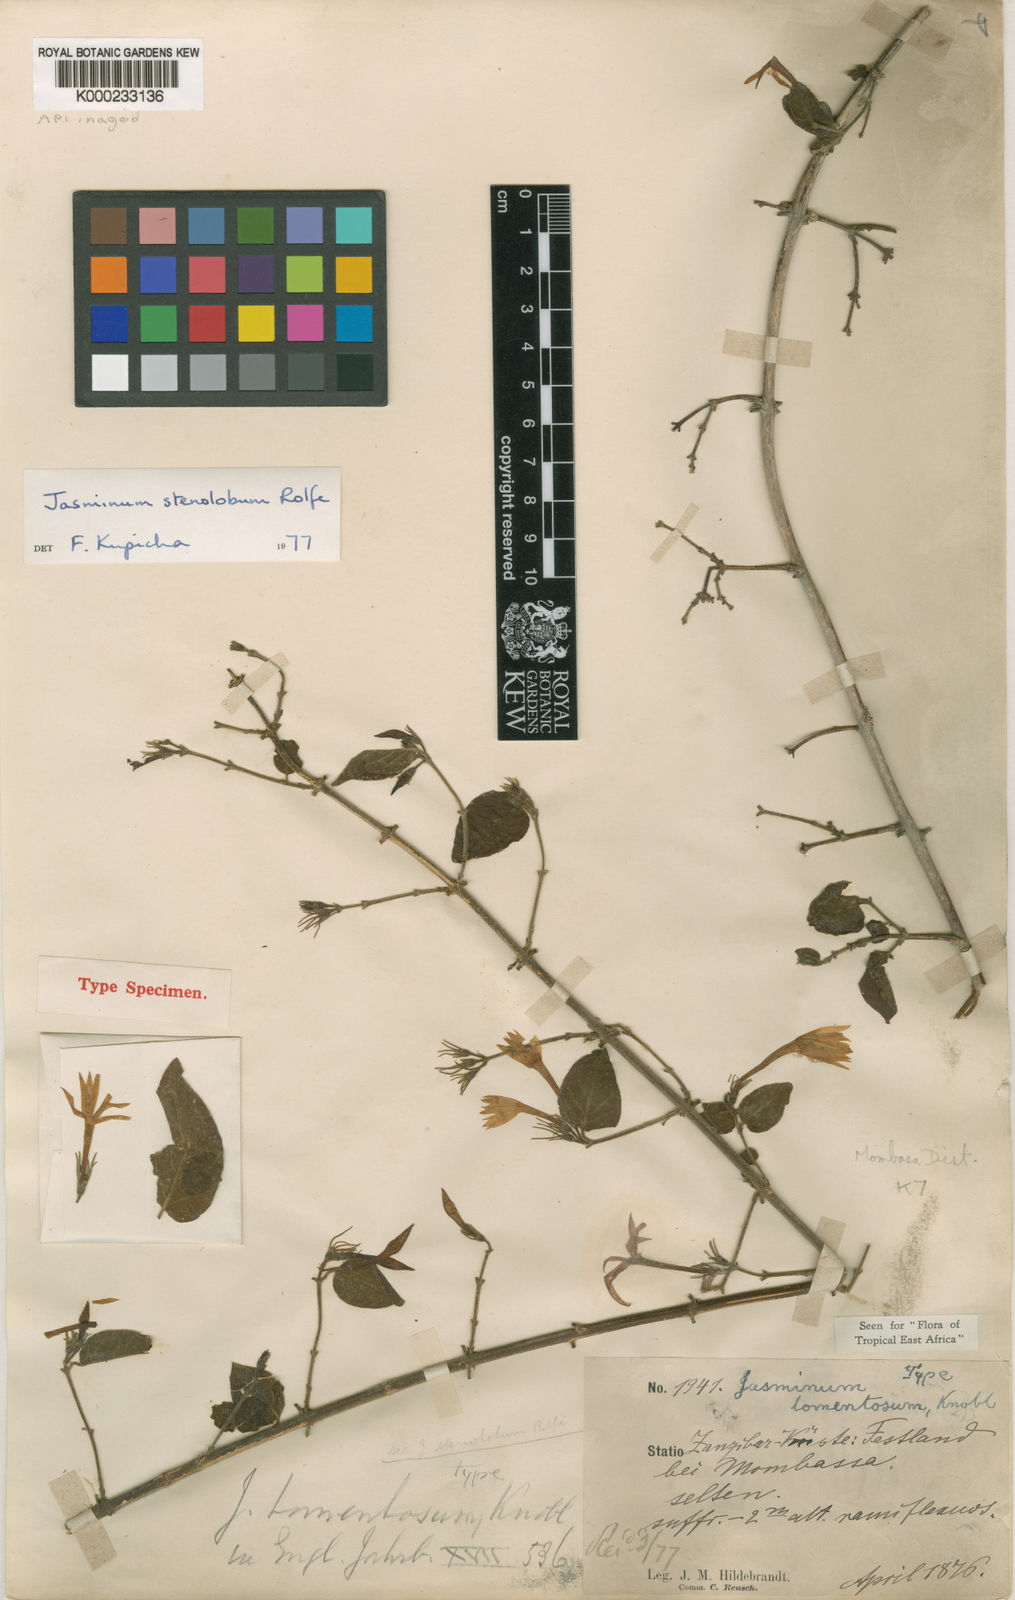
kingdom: Plantae
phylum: Tracheophyta
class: Magnoliopsida
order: Lamiales
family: Oleaceae
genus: Jasminum
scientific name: Jasminum stenolobum
